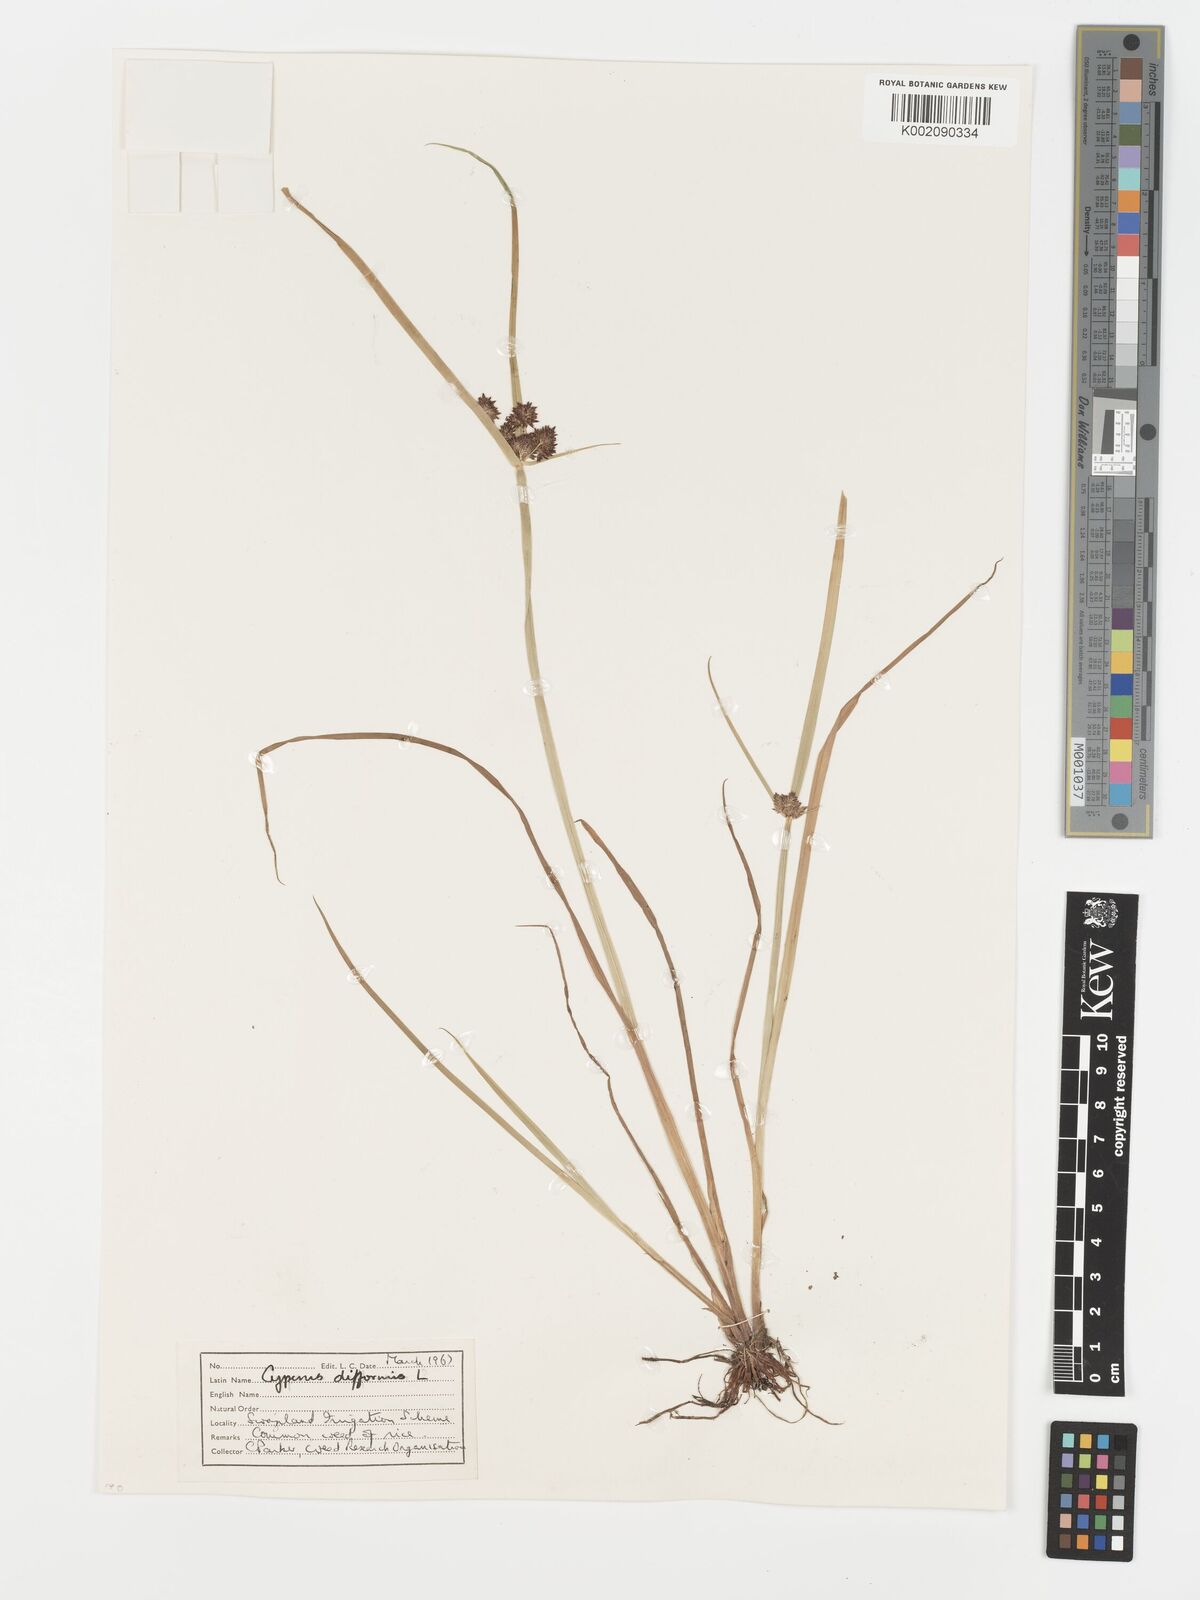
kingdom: Plantae
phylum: Tracheophyta
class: Liliopsida
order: Poales
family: Cyperaceae
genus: Cyperus
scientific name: Cyperus difformis
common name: Variable flatsedge
